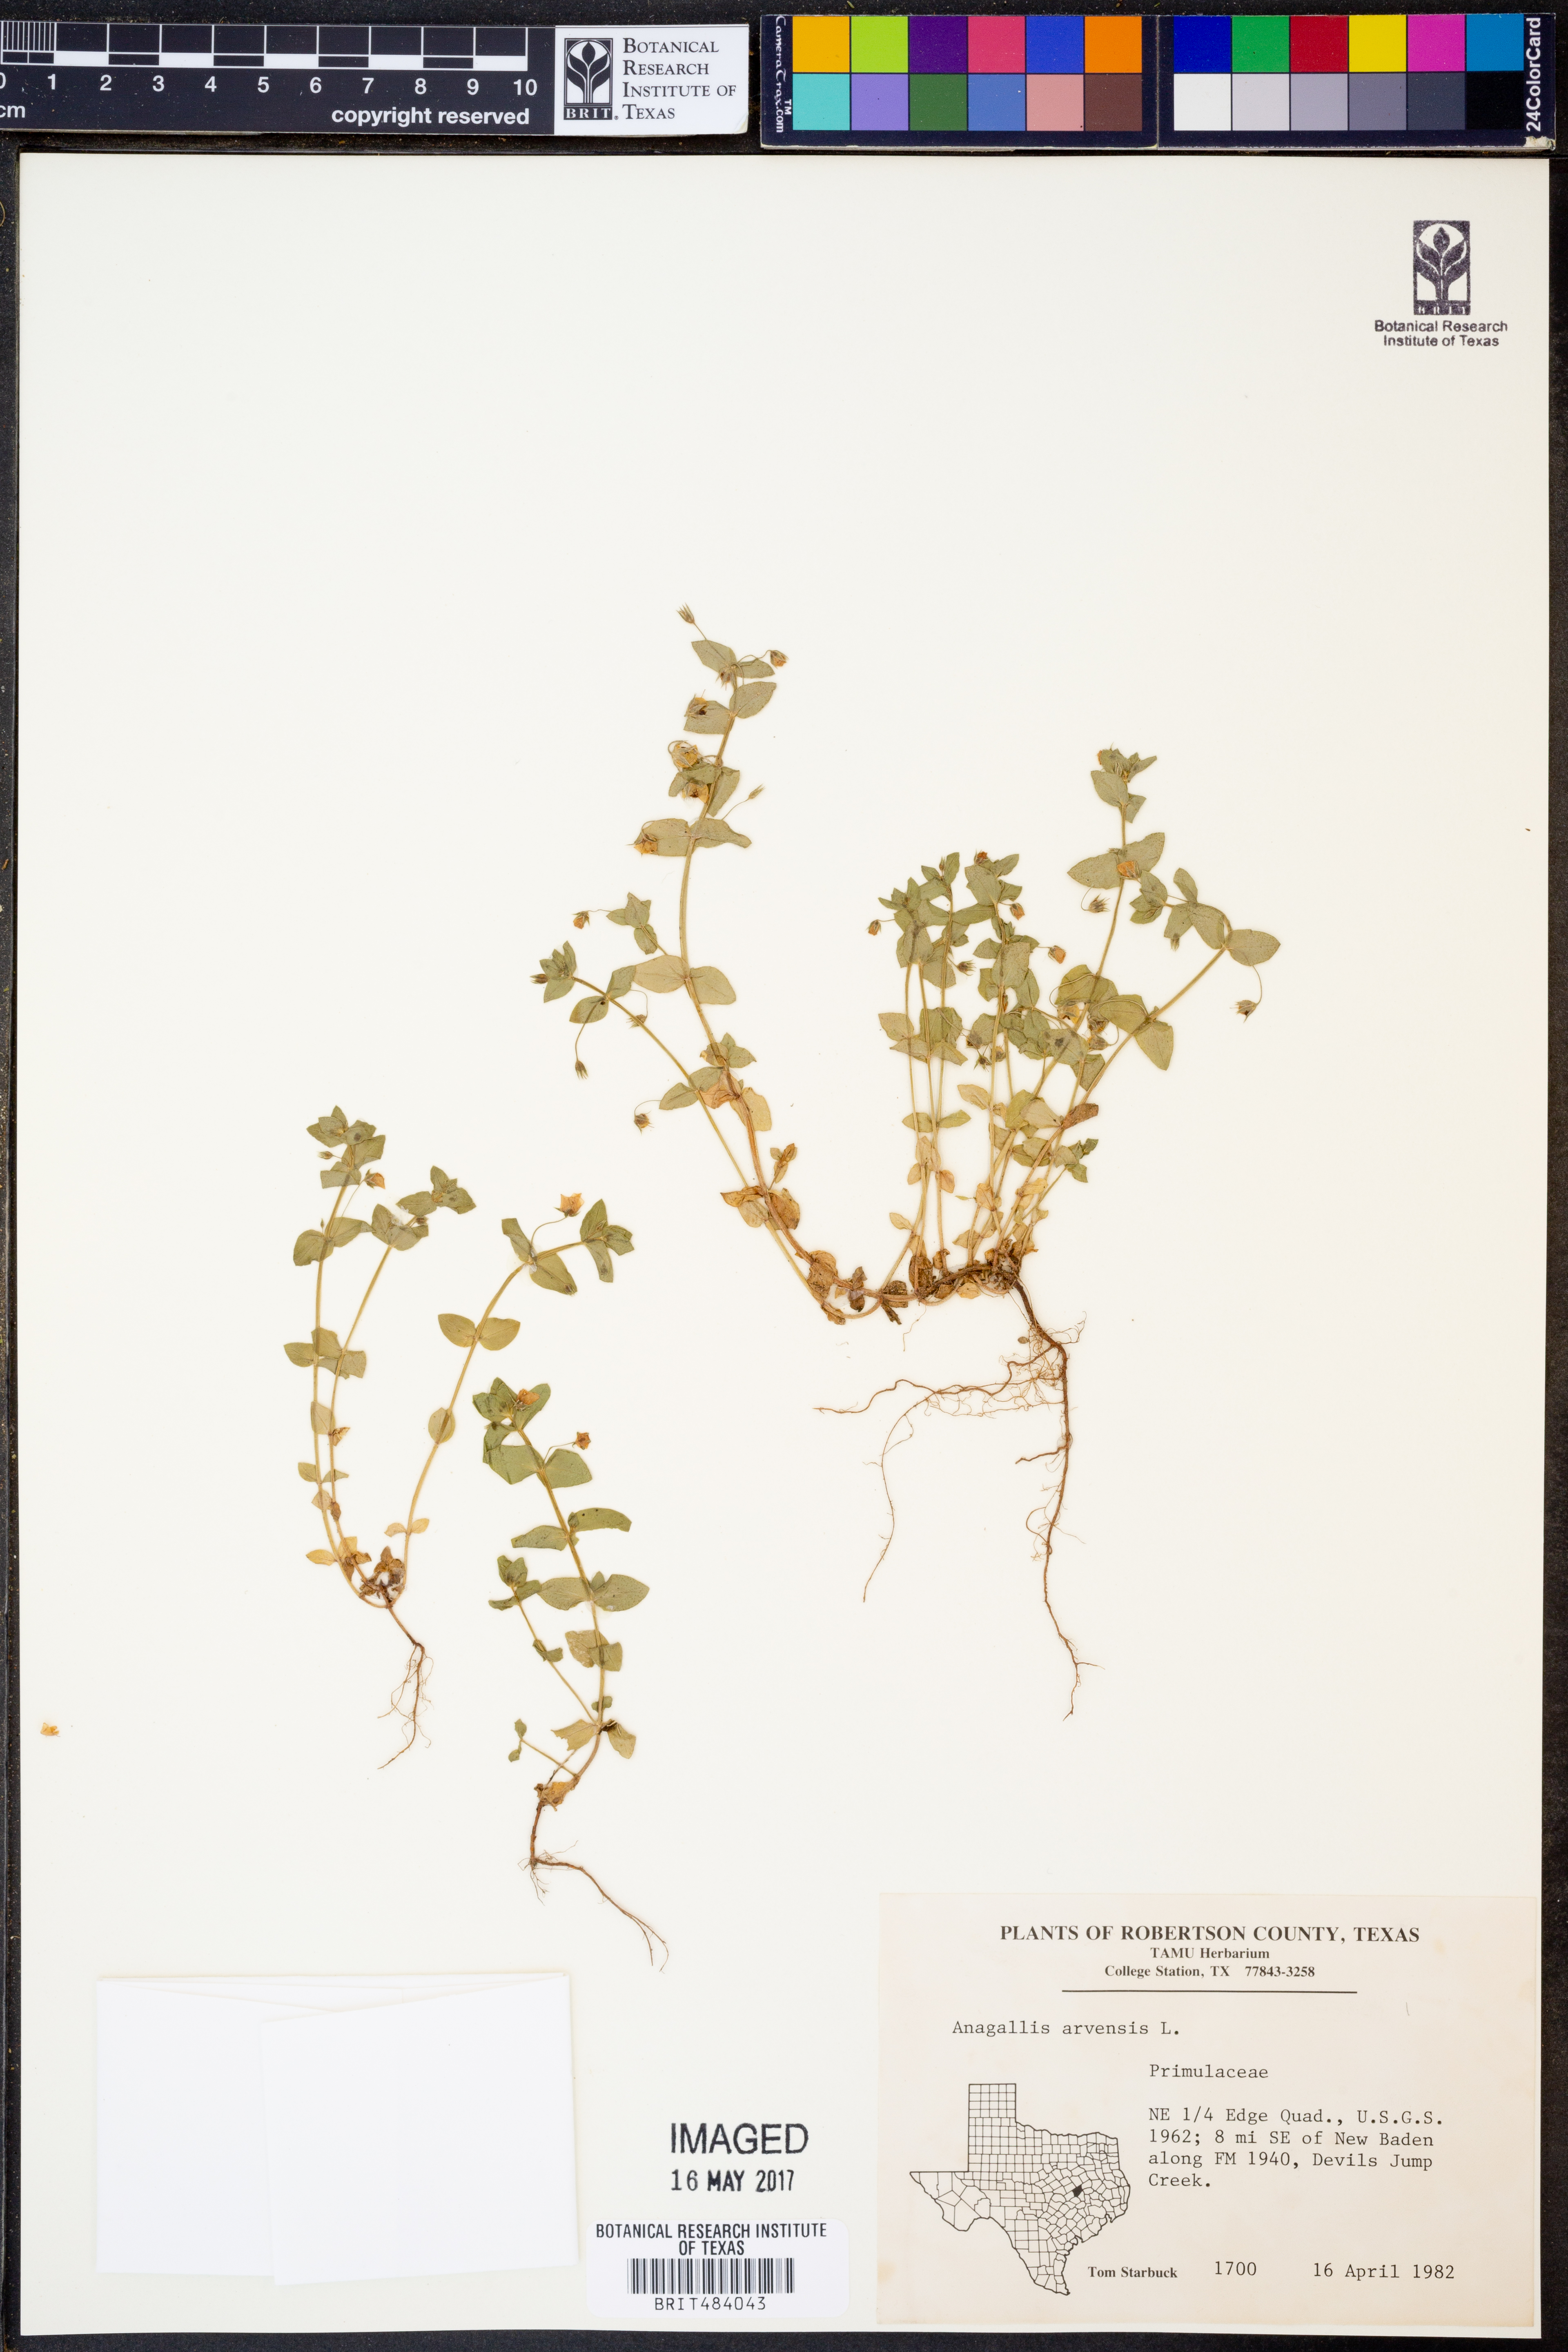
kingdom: Plantae
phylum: Tracheophyta
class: Magnoliopsida
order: Ericales
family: Primulaceae
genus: Lysimachia
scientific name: Lysimachia arvensis
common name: Scarlet pimpernel
